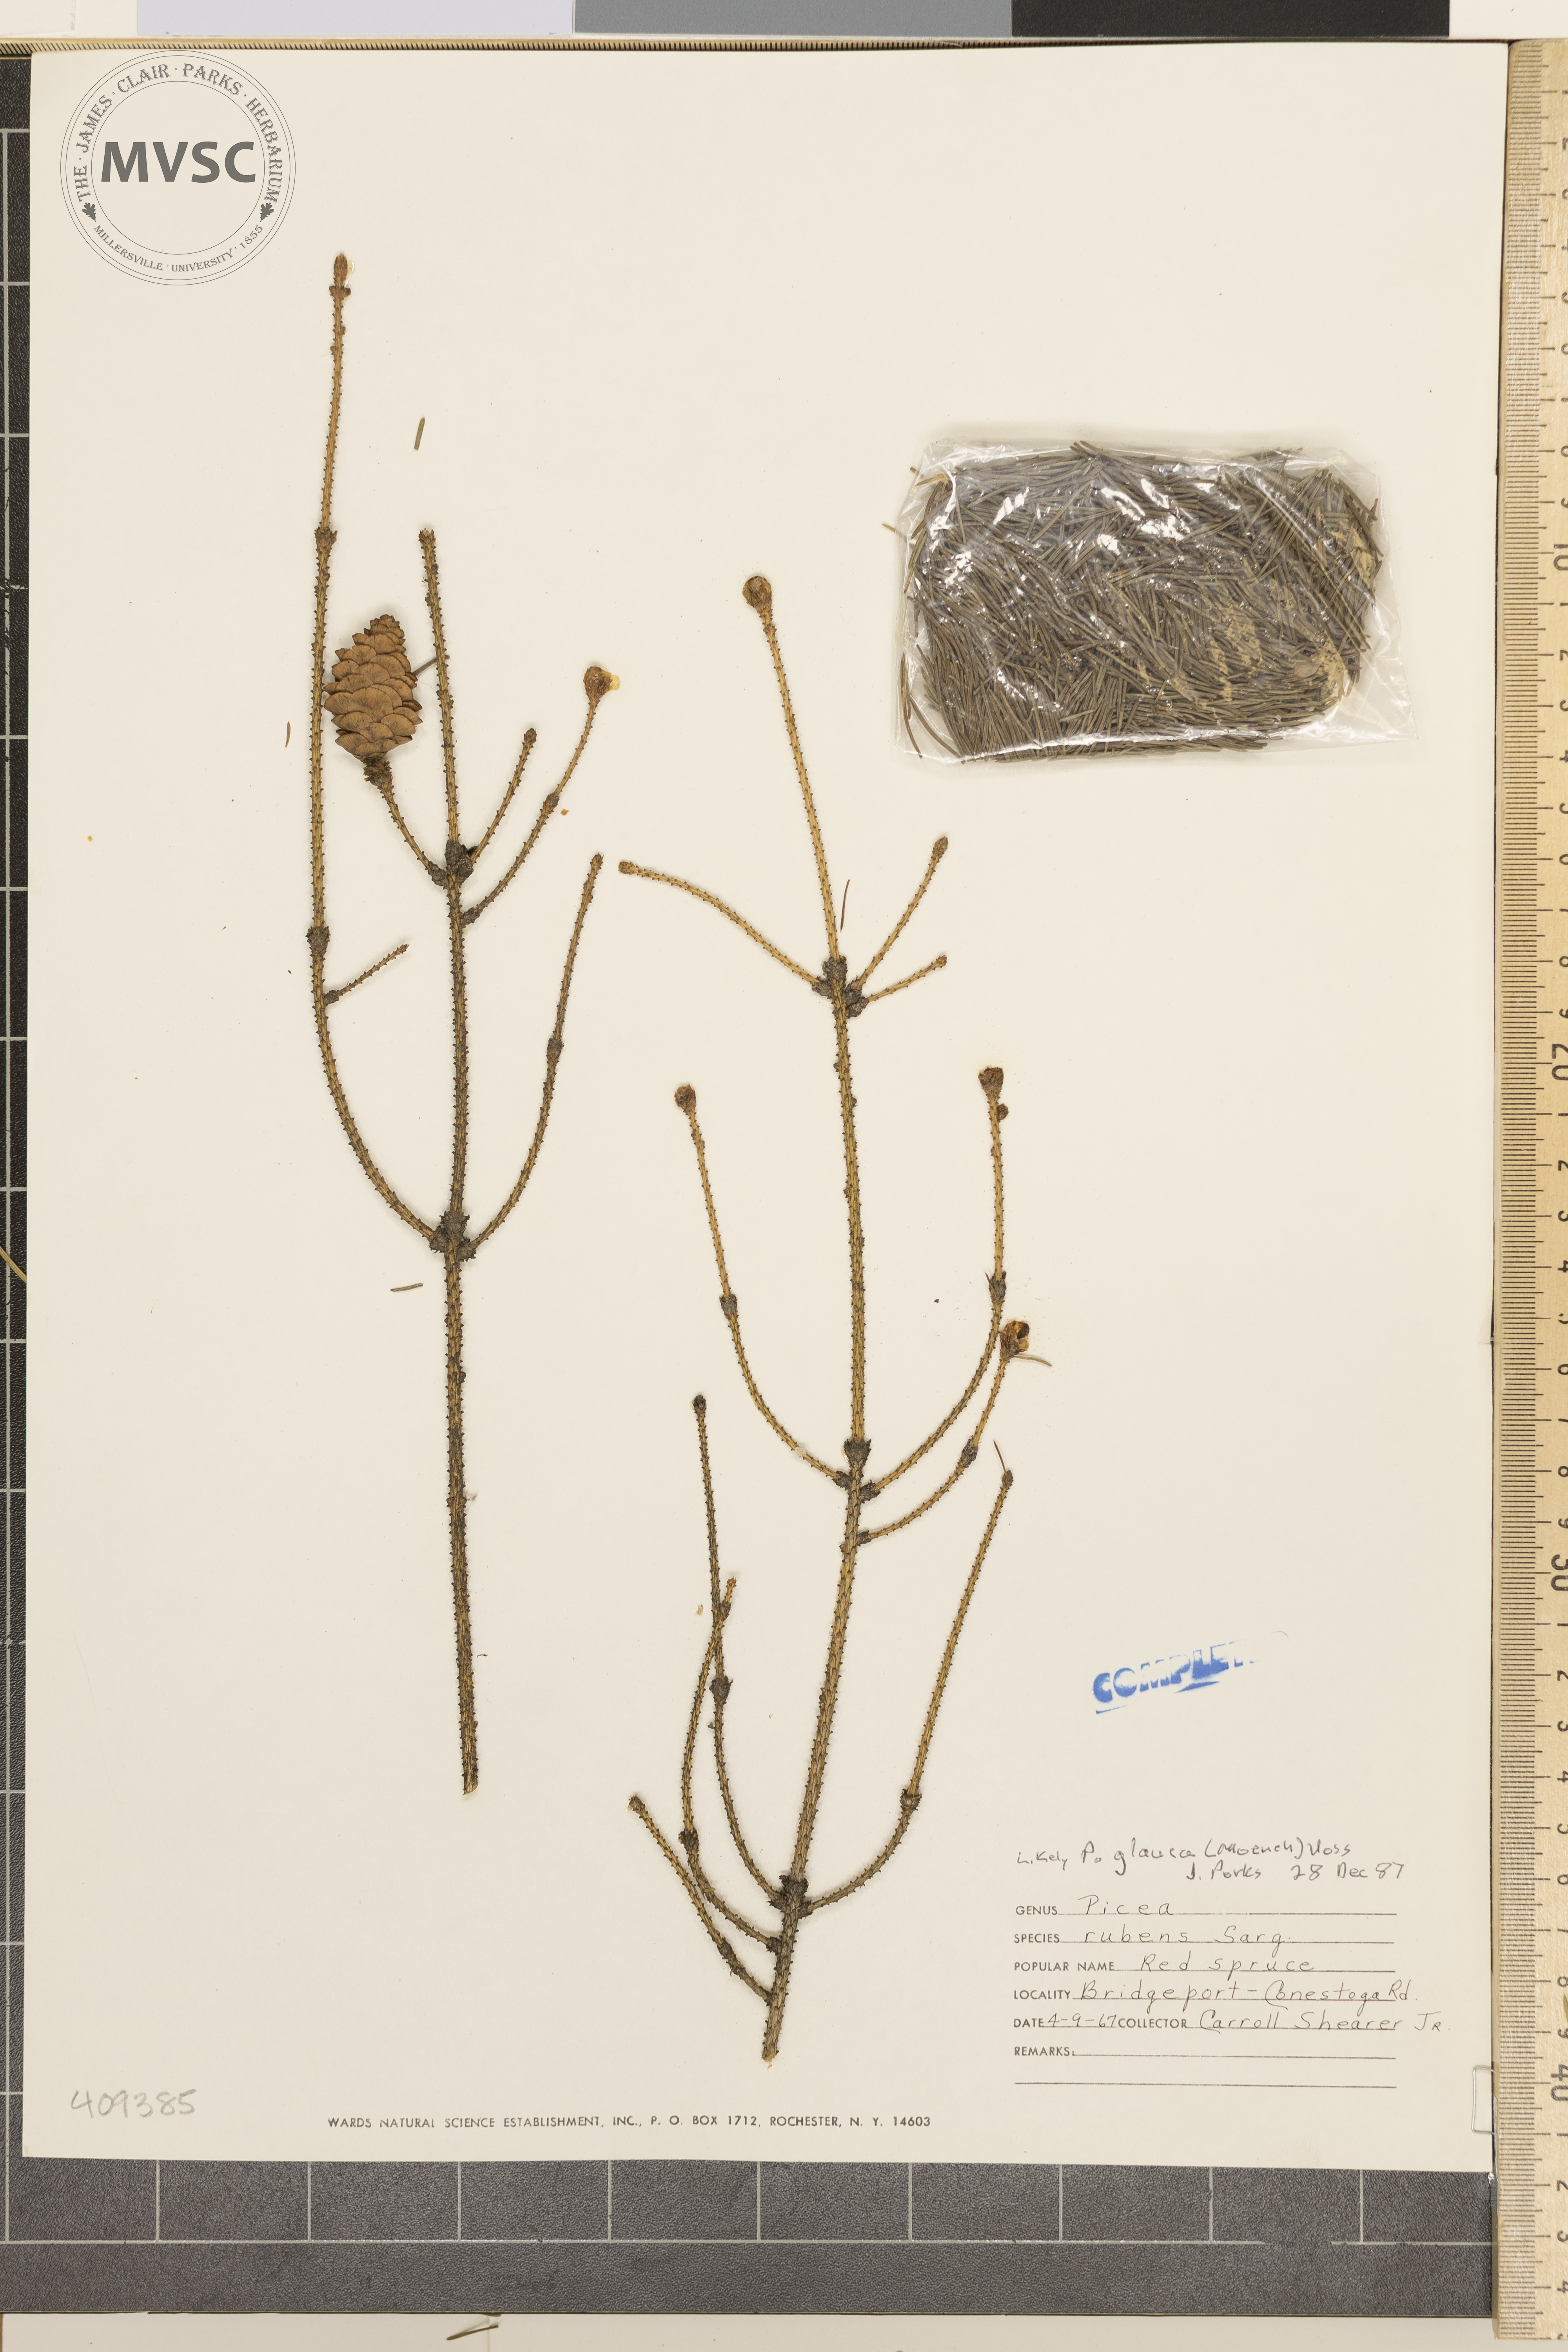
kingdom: Plantae
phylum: Tracheophyta
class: Pinopsida
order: Pinales
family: Pinaceae
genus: Picea
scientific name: Picea glauca
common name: White spruce
